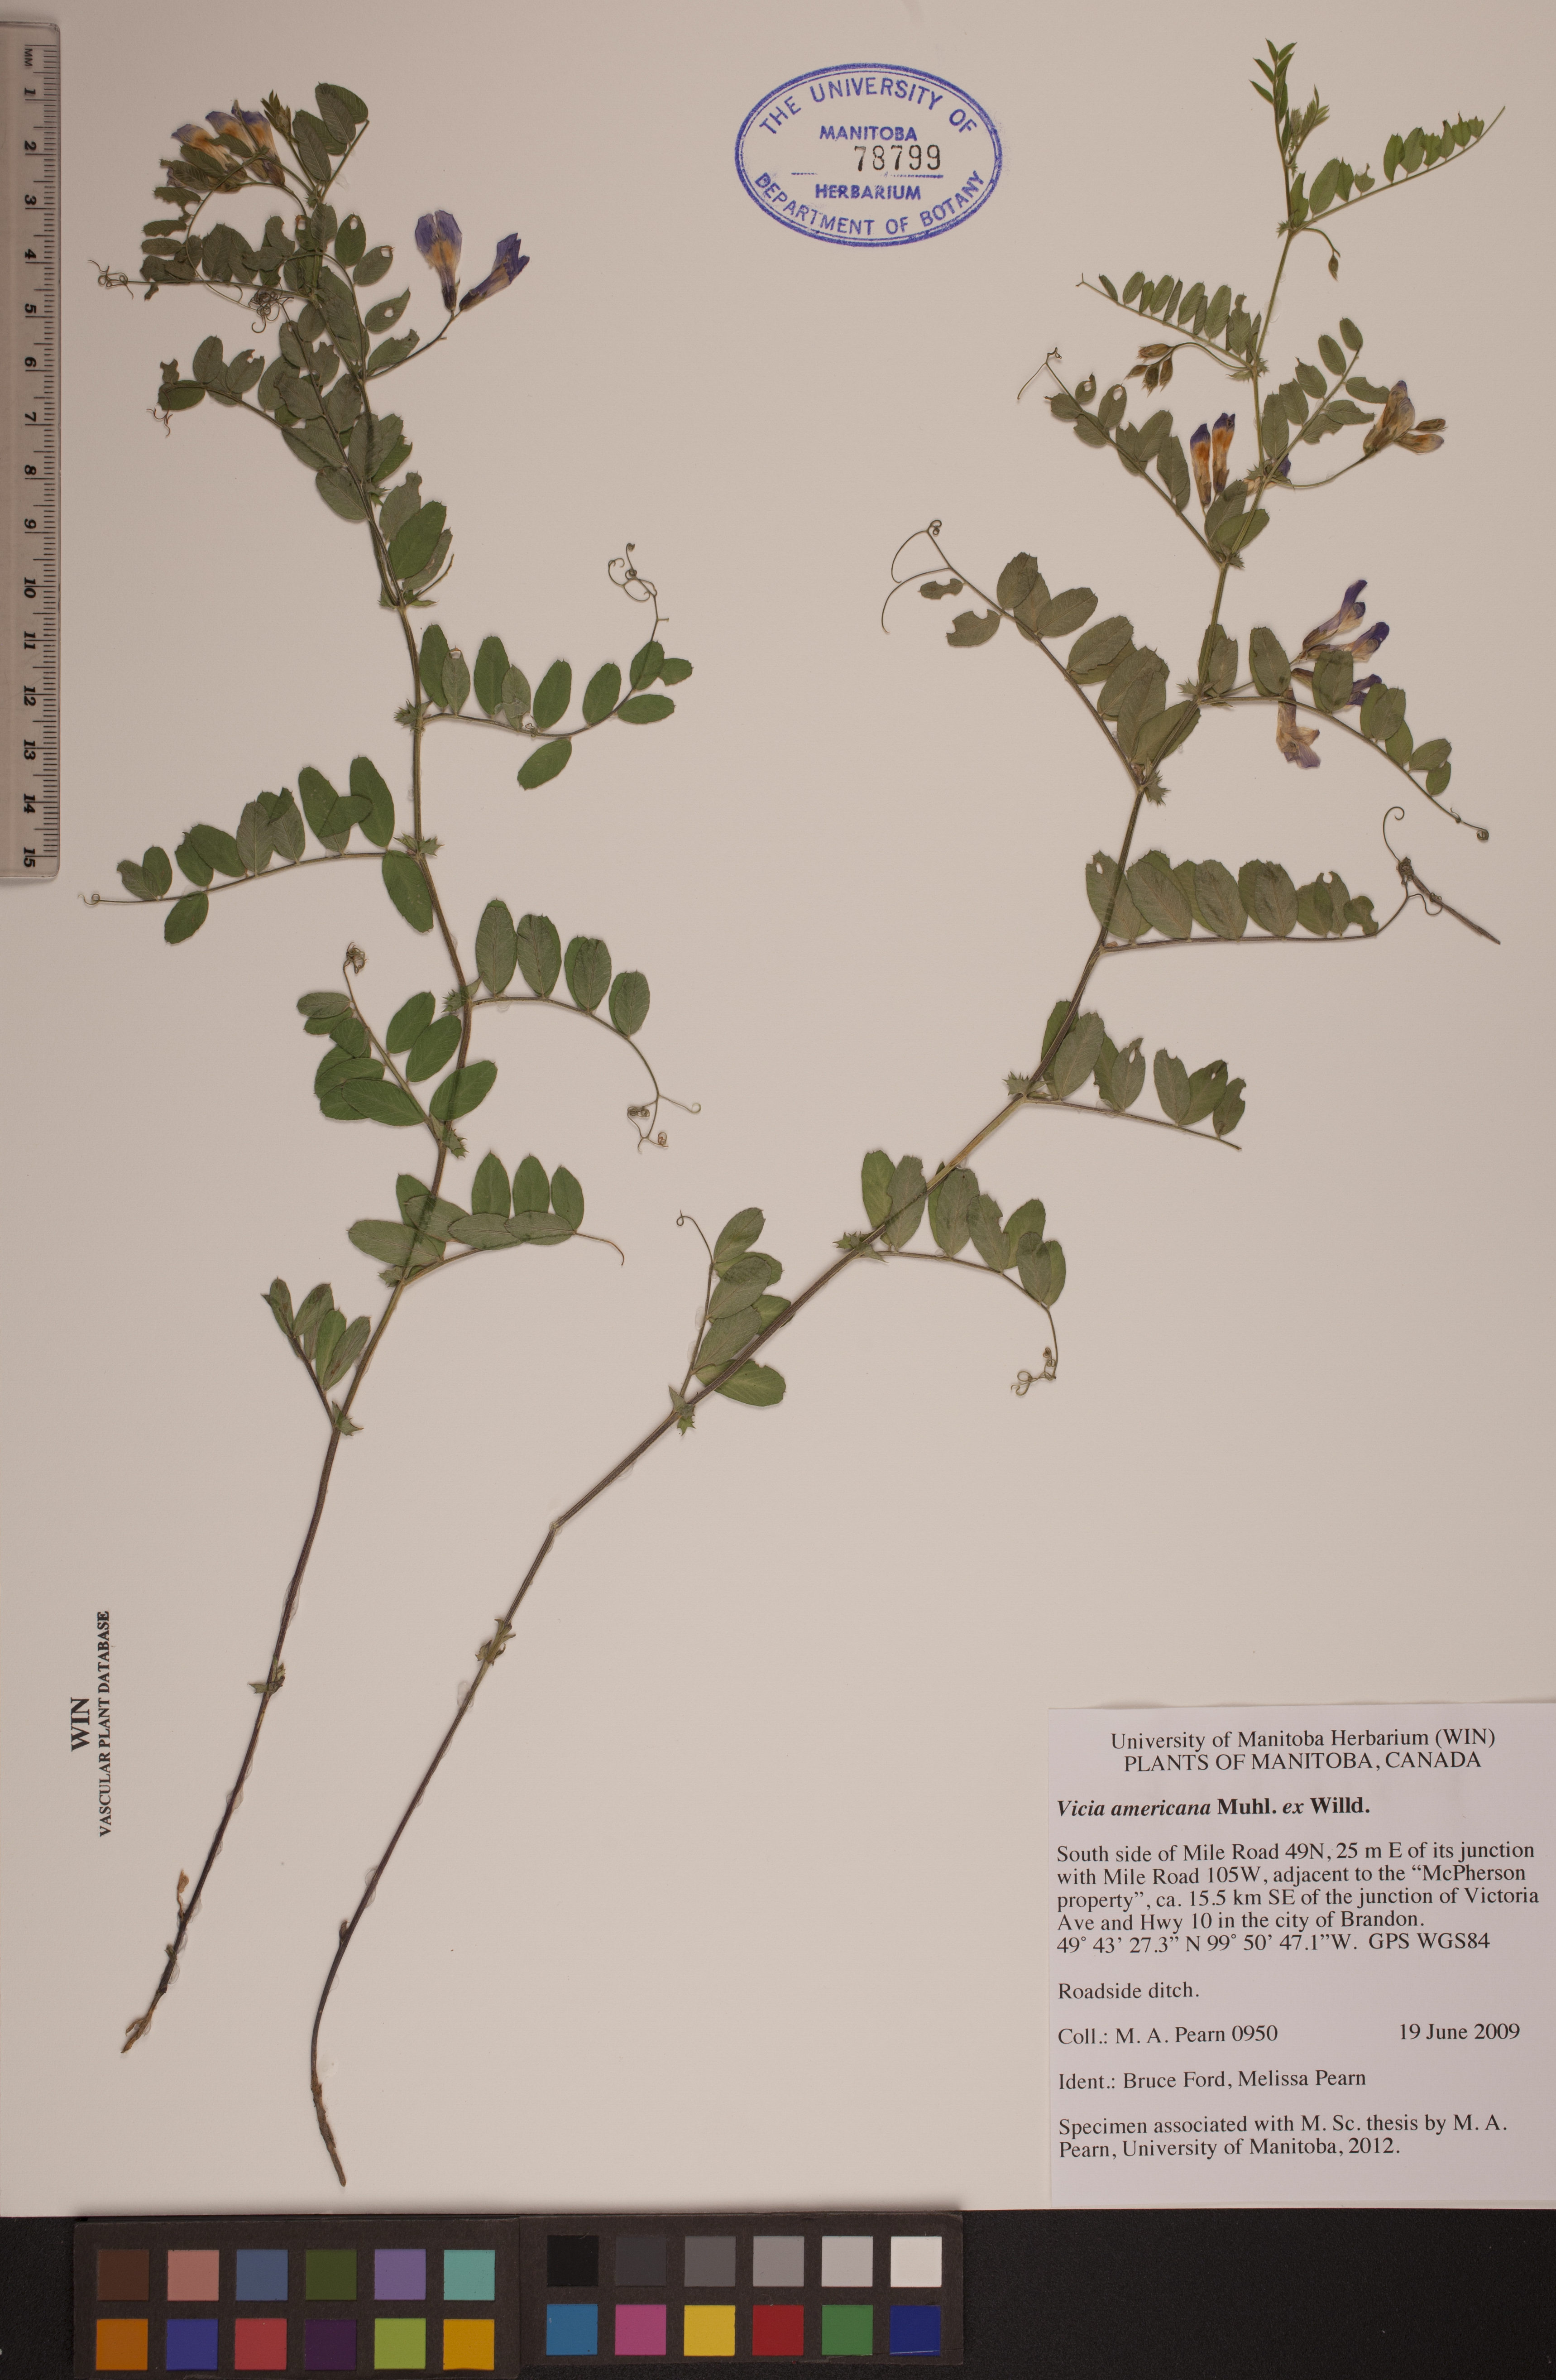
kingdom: Plantae
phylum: Tracheophyta
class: Magnoliopsida
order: Fabales
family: Fabaceae
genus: Vicia
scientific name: Vicia americana
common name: American vetch
